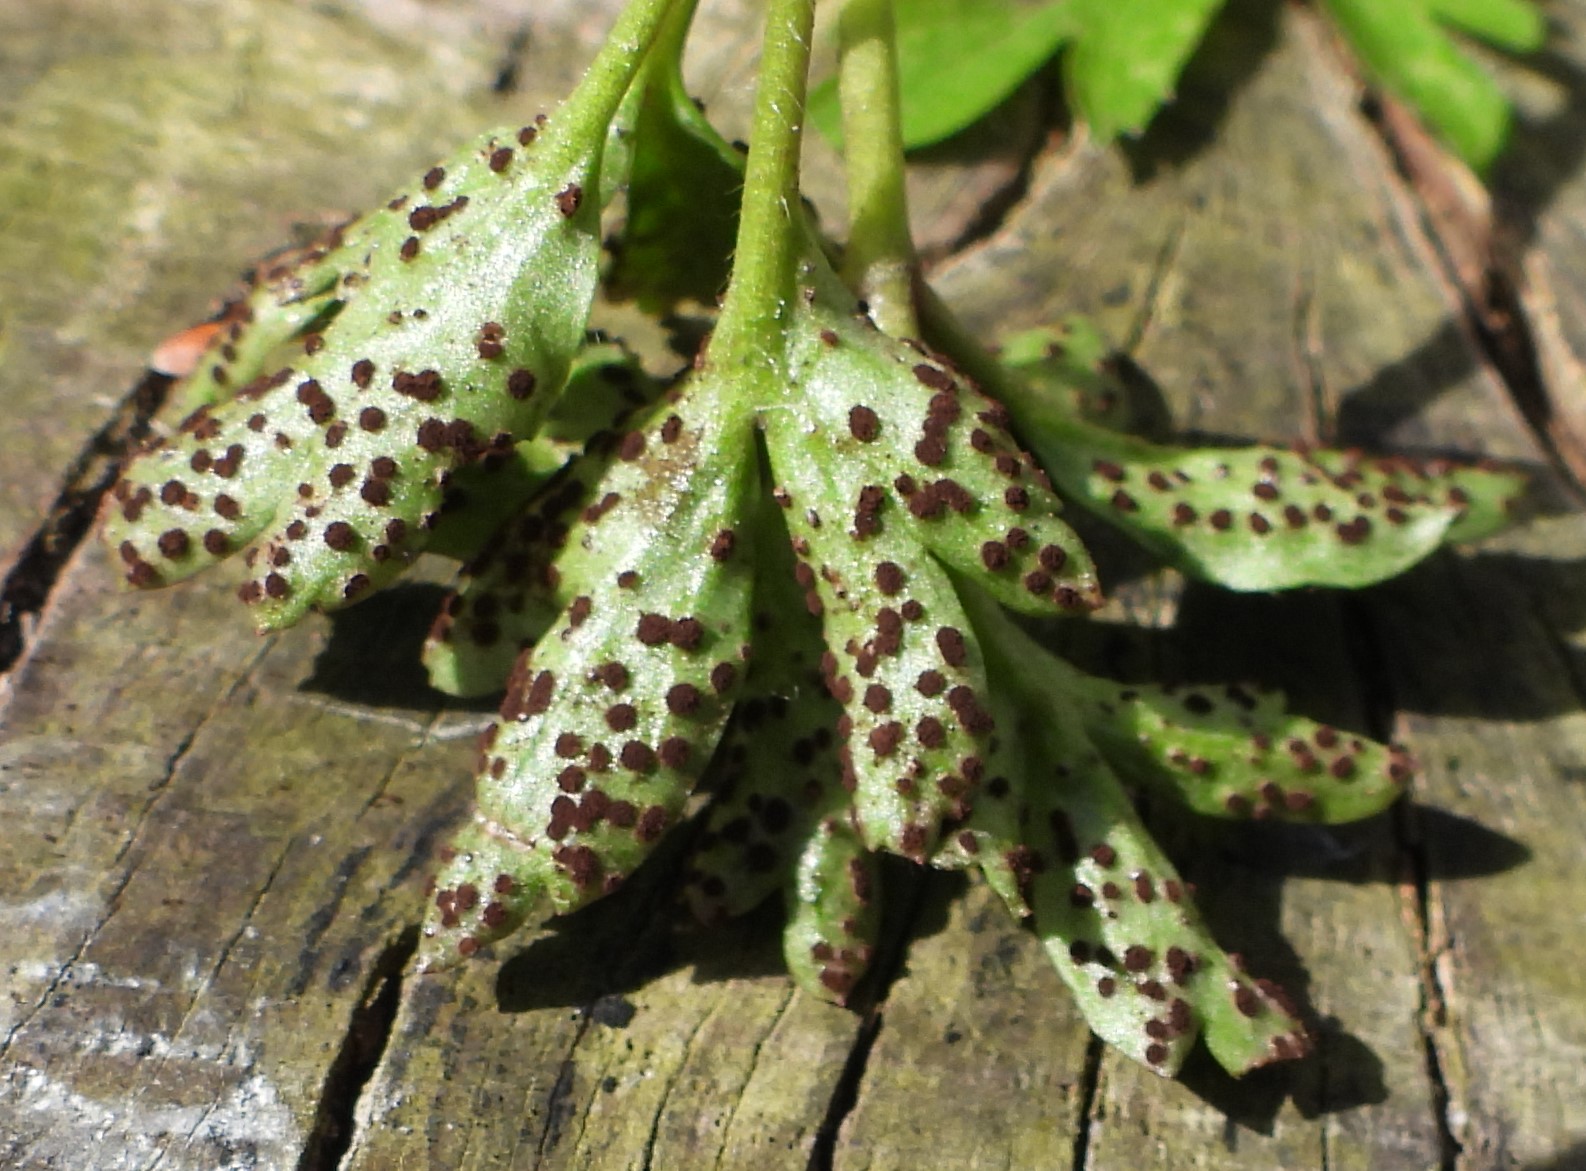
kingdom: Fungi
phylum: Basidiomycota
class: Pucciniomycetes
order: Pucciniales
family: Tranzscheliaceae
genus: Tranzschelia
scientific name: Tranzschelia anemones
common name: anemone-knæksporerust
